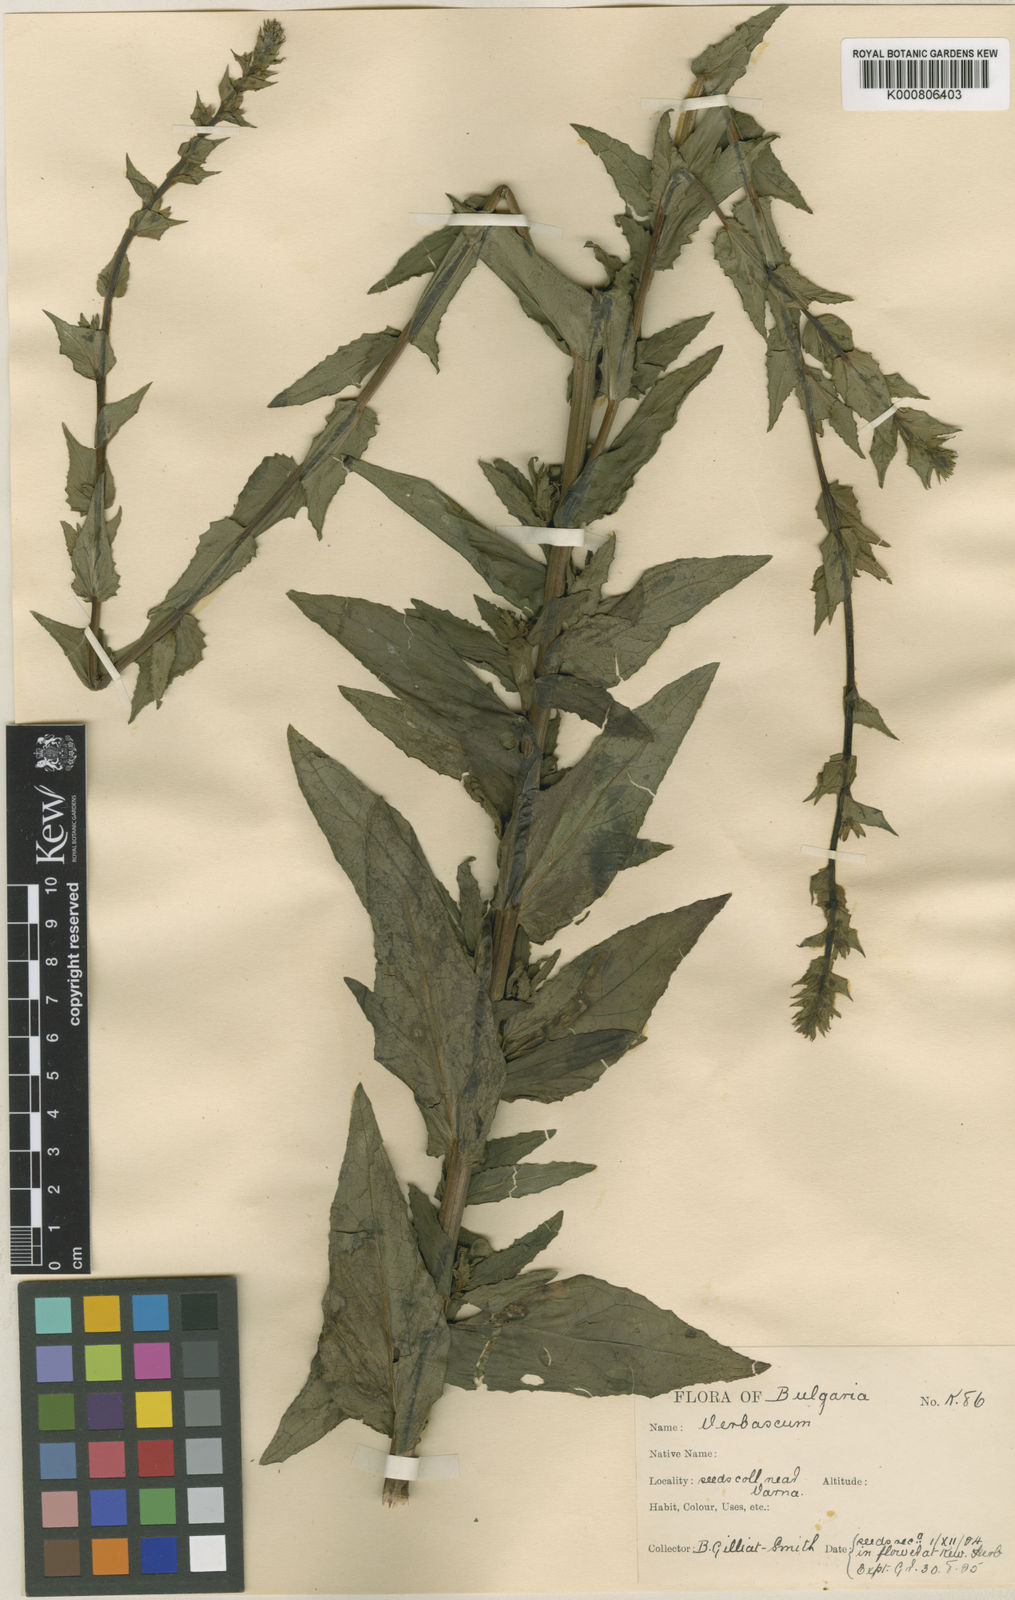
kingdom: Plantae
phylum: Tracheophyta
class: Magnoliopsida
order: Lamiales
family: Scrophulariaceae
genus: Verbascum
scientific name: Verbascum blattaria
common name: Moth mullein
